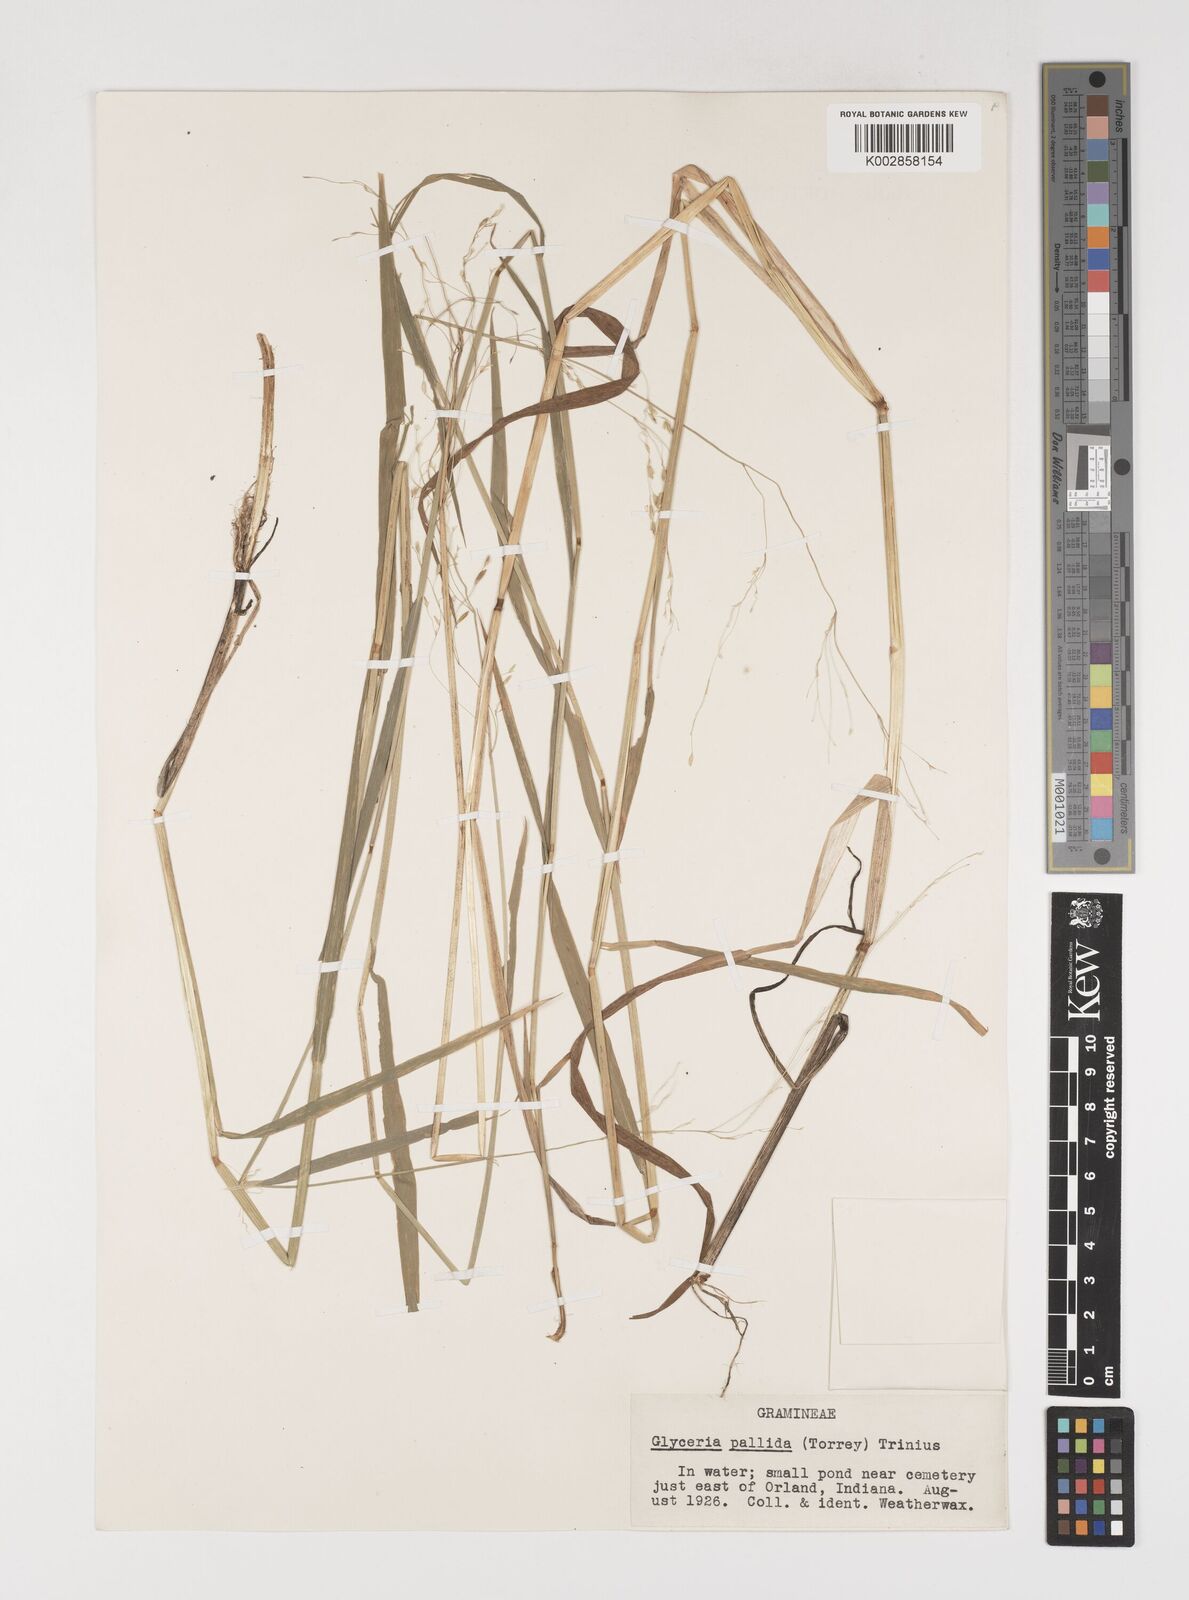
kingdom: Plantae
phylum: Tracheophyta
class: Liliopsida
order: Poales
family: Poaceae
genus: Torreyochloa
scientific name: Torreyochloa pallida
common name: Pale false mannagrass
